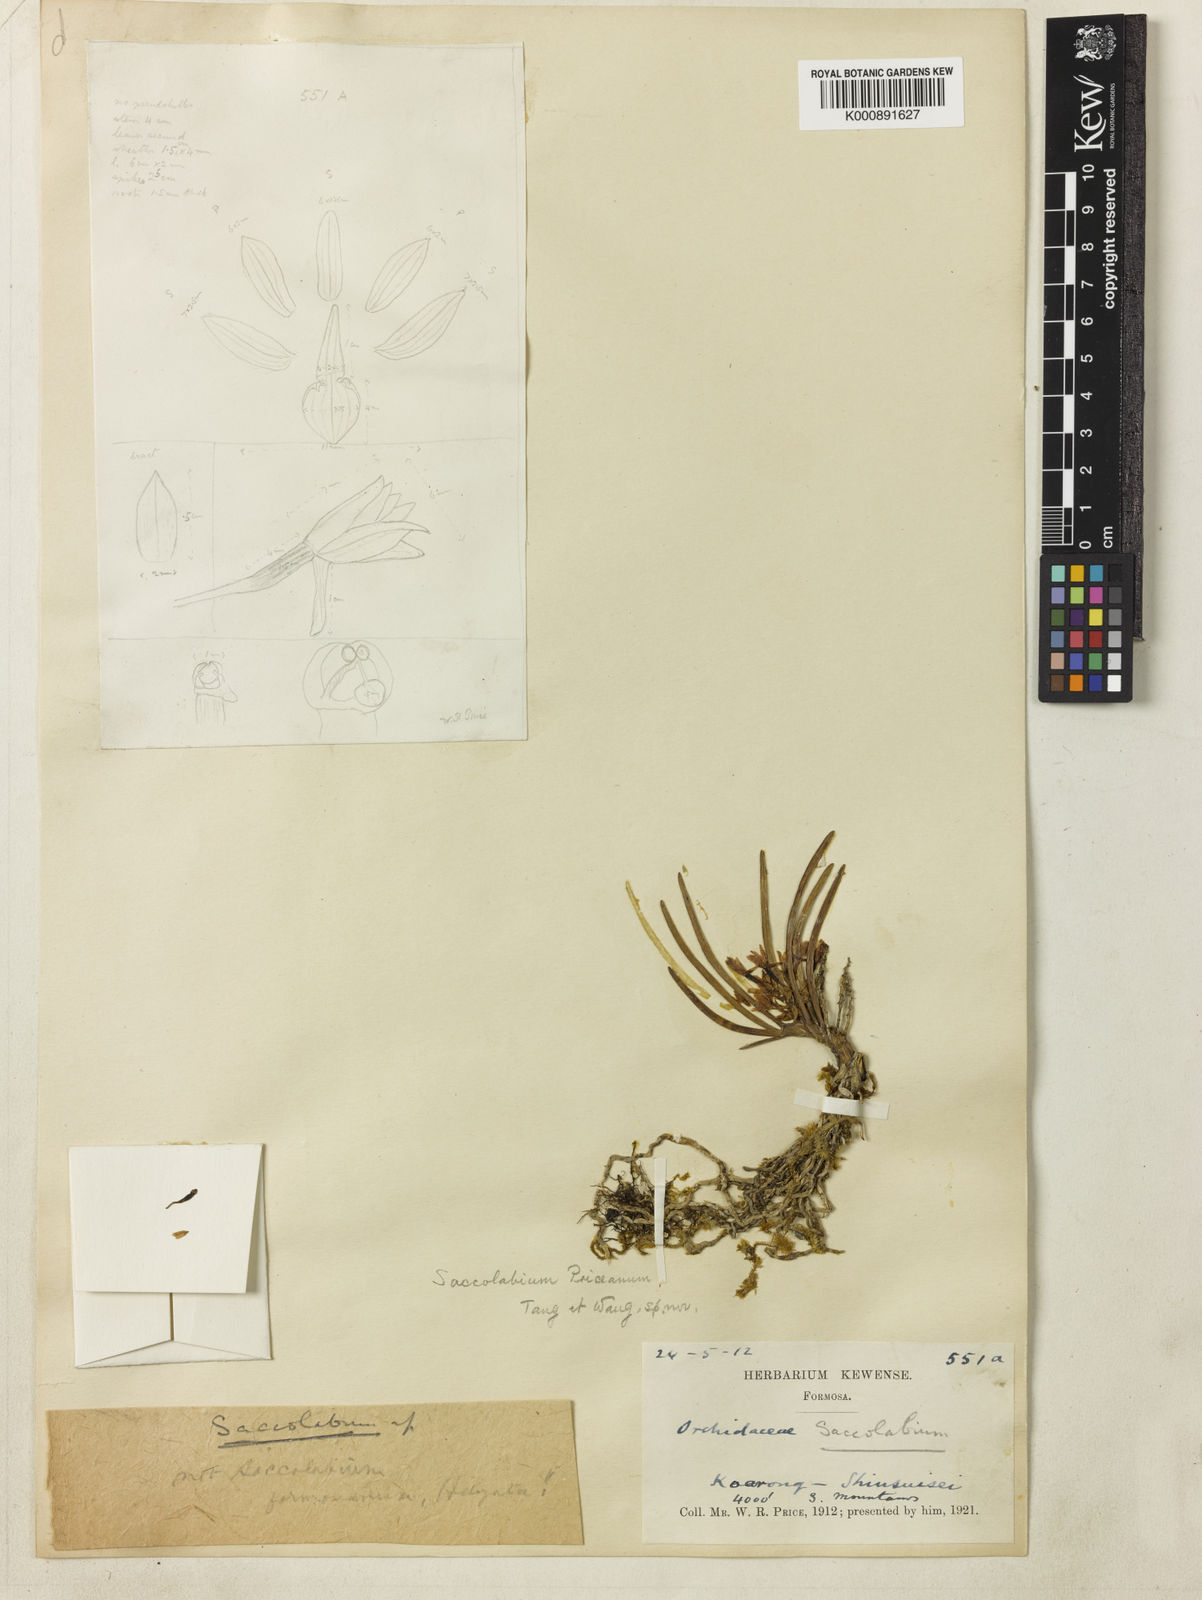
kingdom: Plantae
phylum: Tracheophyta
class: Liliopsida
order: Asparagales
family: Orchidaceae
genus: Ascocentrum
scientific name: Ascocentrum
